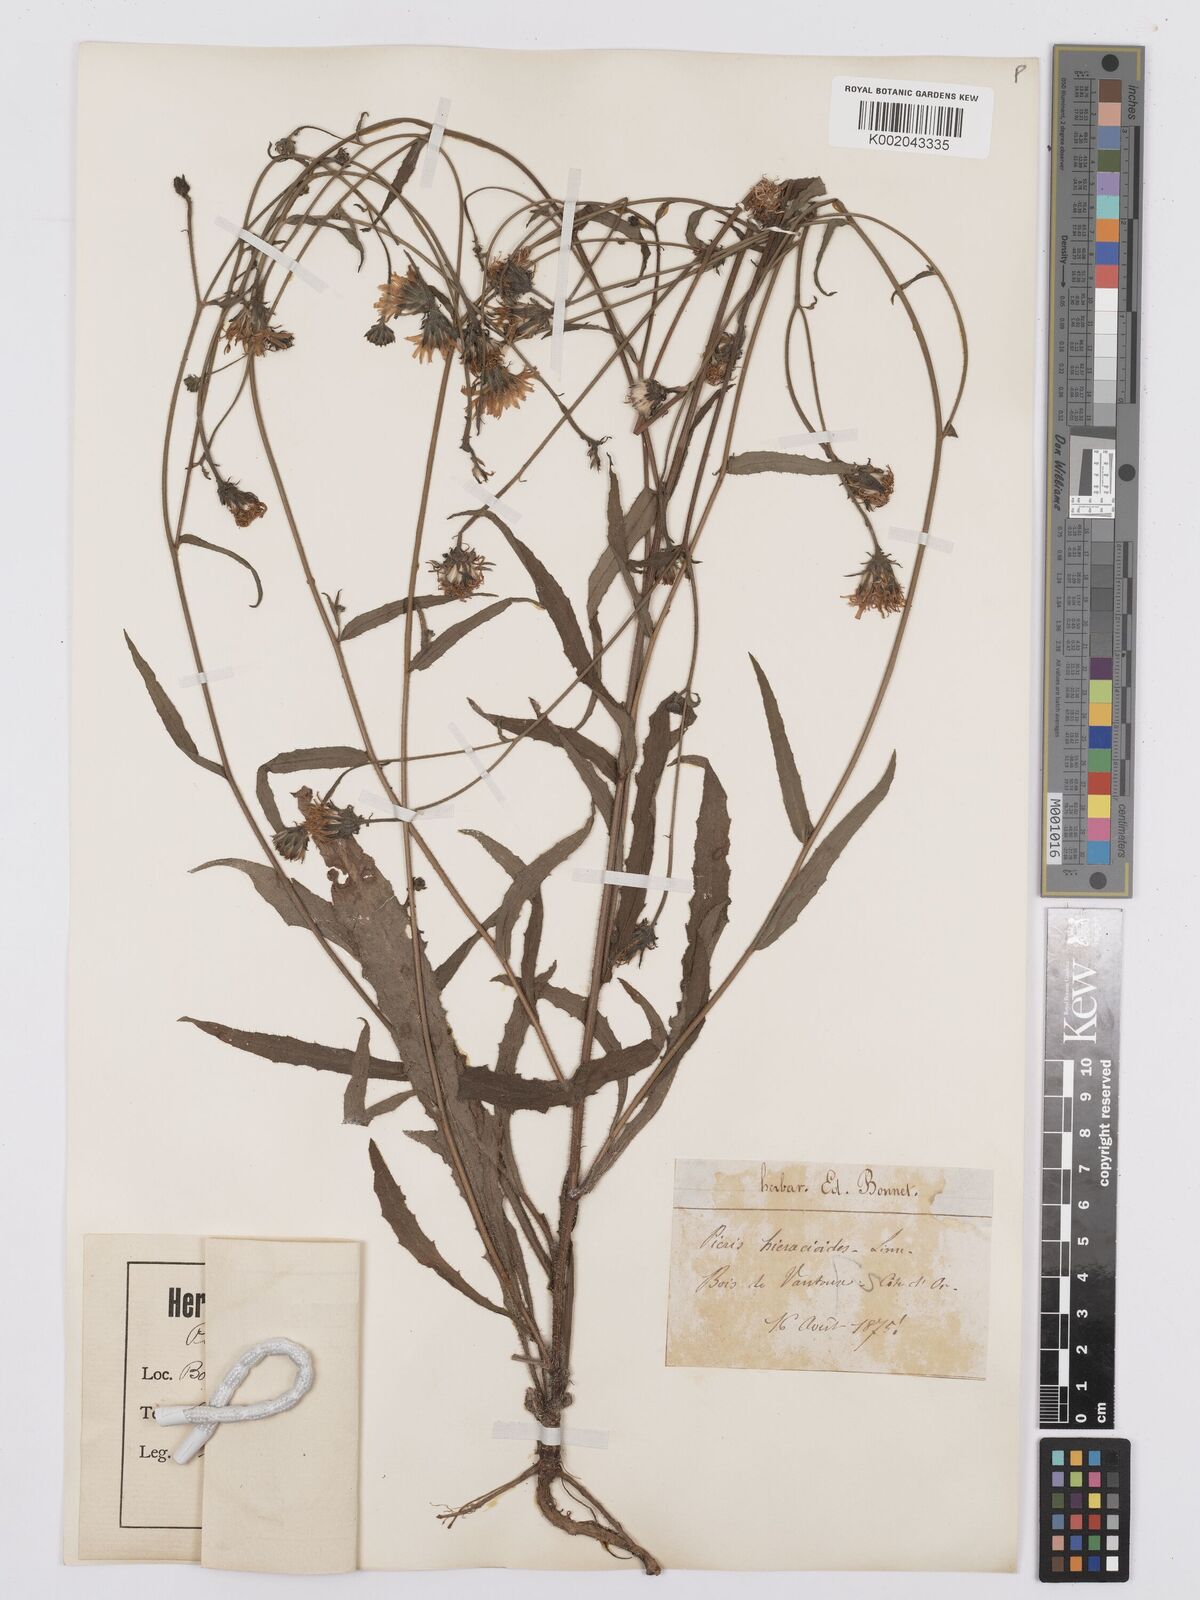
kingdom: Plantae
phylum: Tracheophyta
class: Magnoliopsida
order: Asterales
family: Asteraceae
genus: Picris
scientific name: Picris hieracioides
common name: Hawkweed oxtongue
